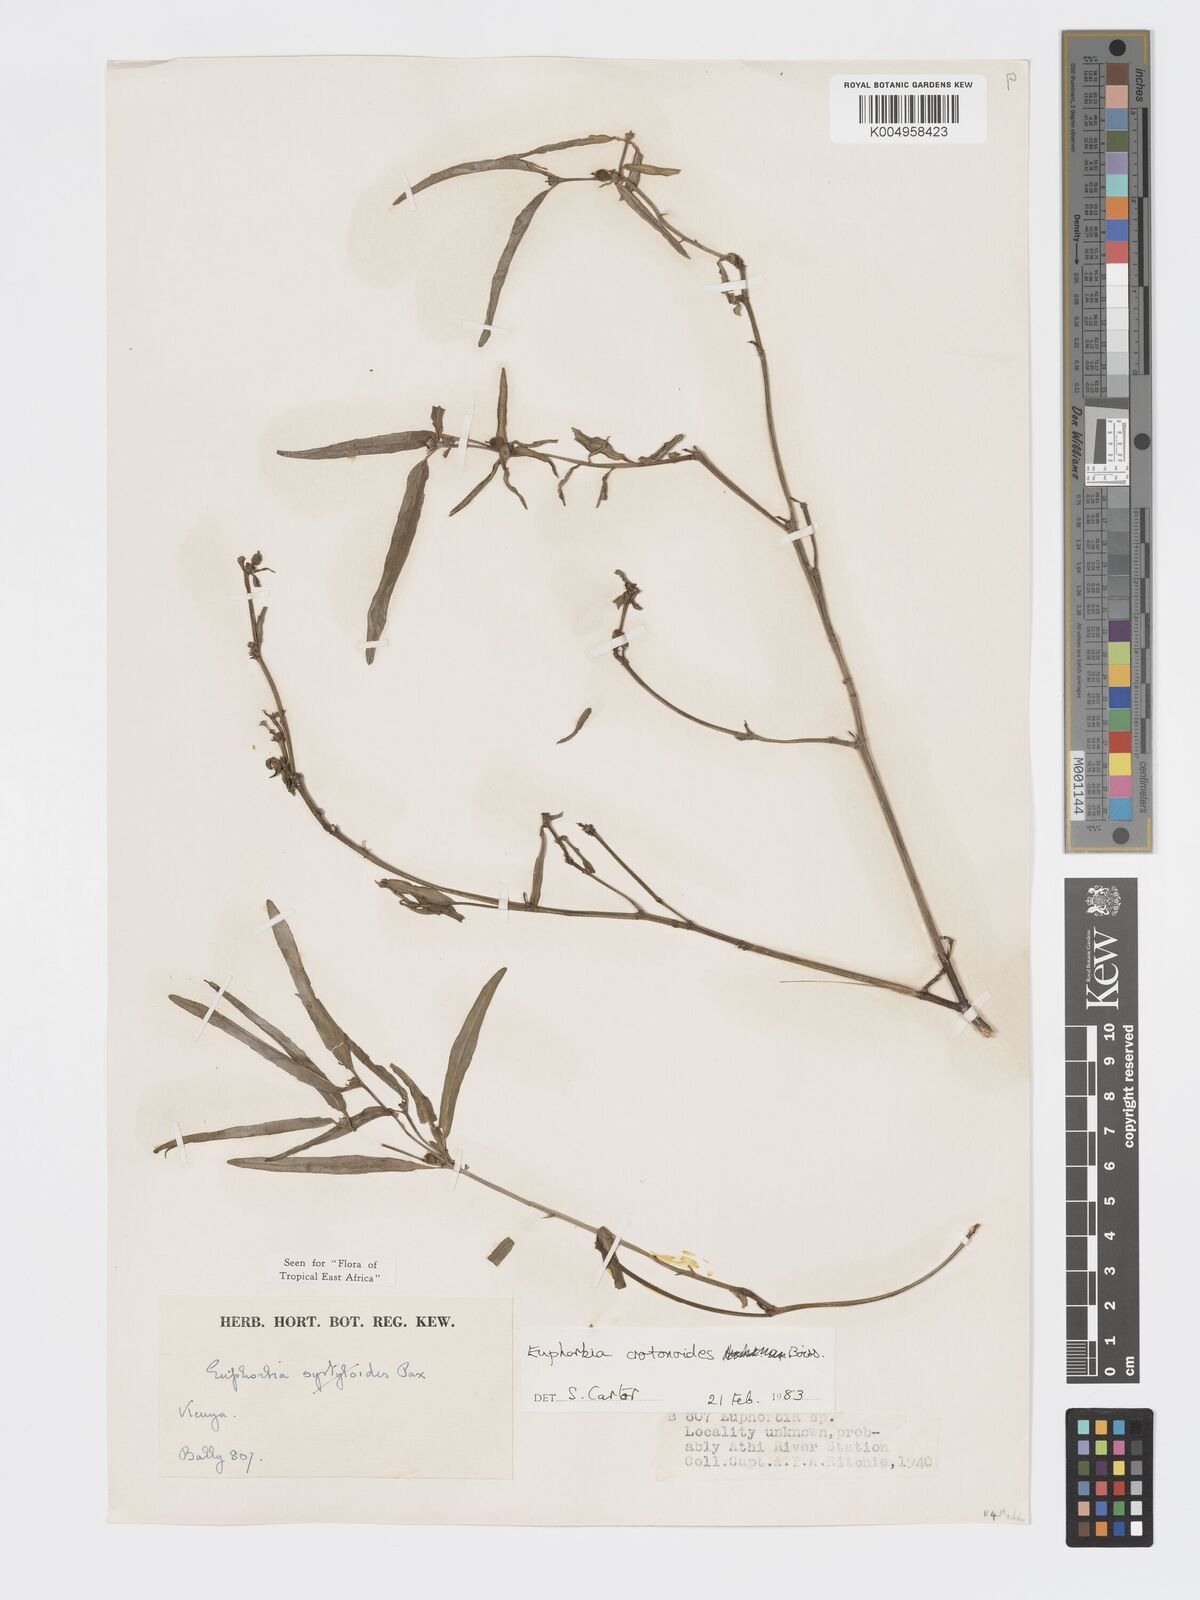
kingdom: Plantae
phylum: Tracheophyta
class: Magnoliopsida
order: Malpighiales
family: Euphorbiaceae
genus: Euphorbia
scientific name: Euphorbia crotonoides
